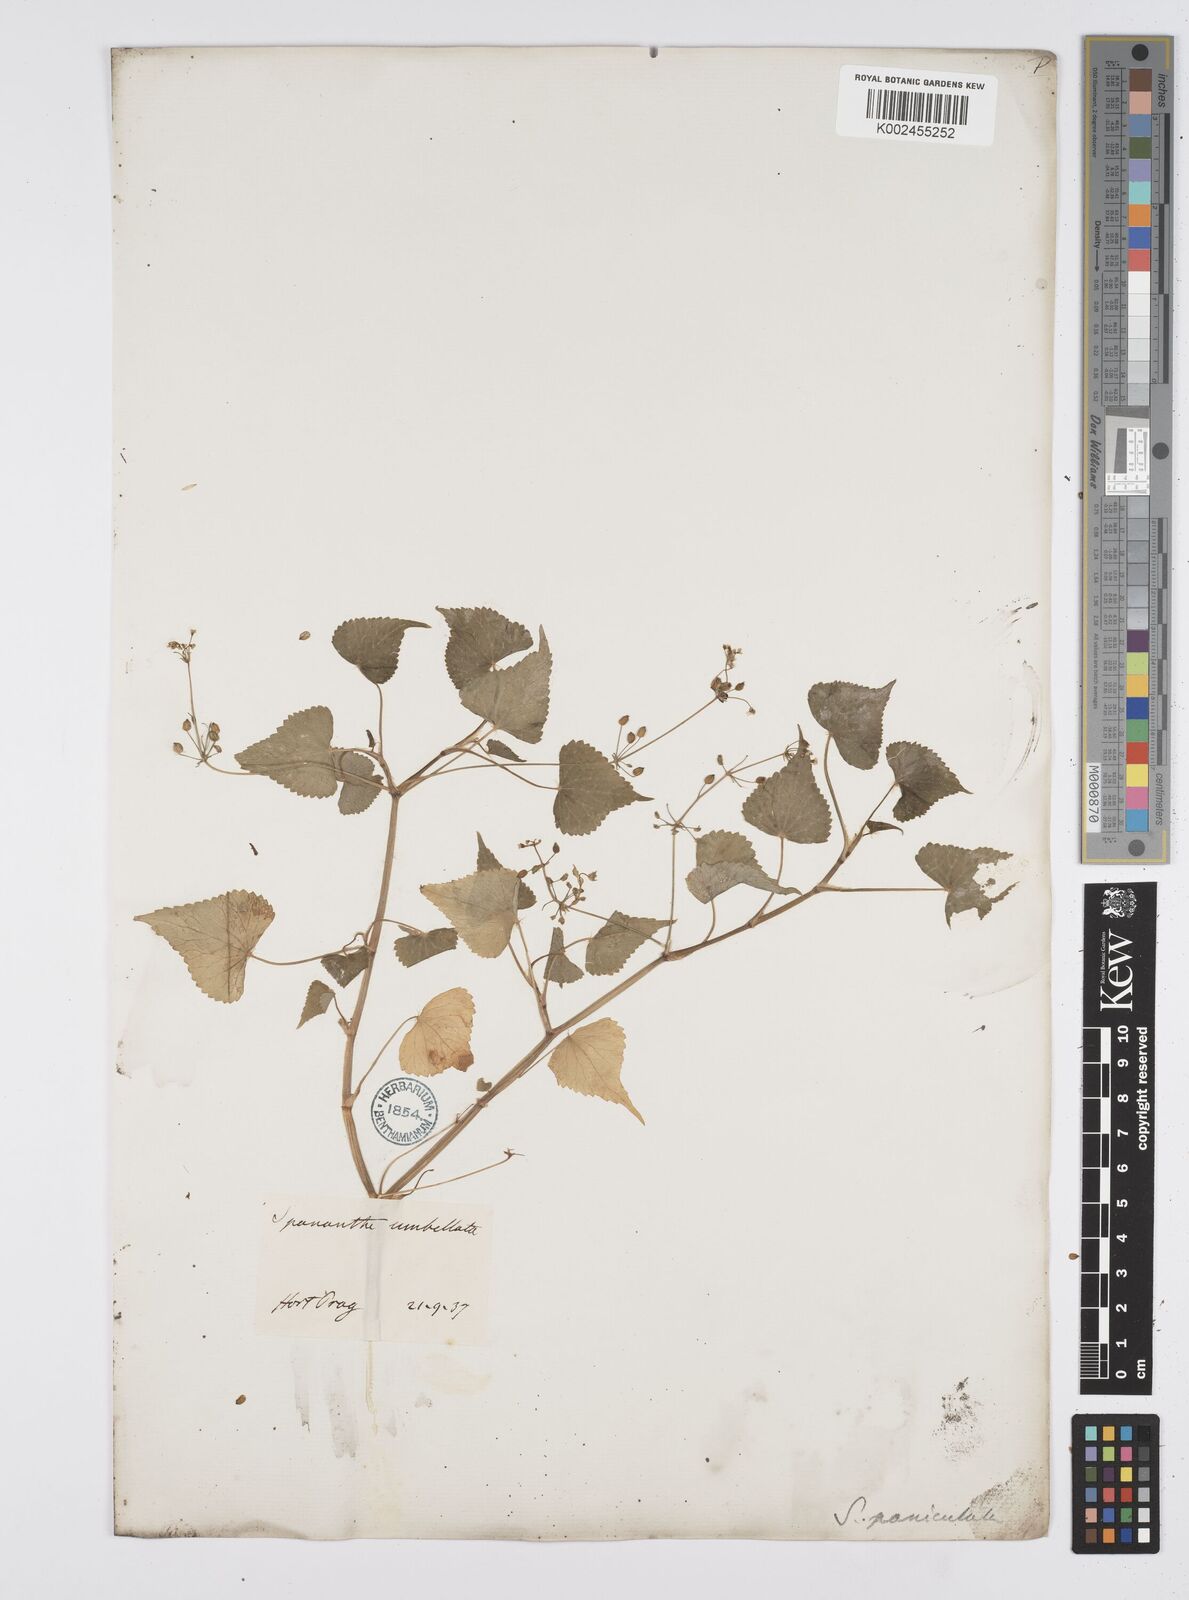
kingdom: Plantae
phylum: Tracheophyta
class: Magnoliopsida
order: Apiales
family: Apiaceae
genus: Azorella
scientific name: Azorella
